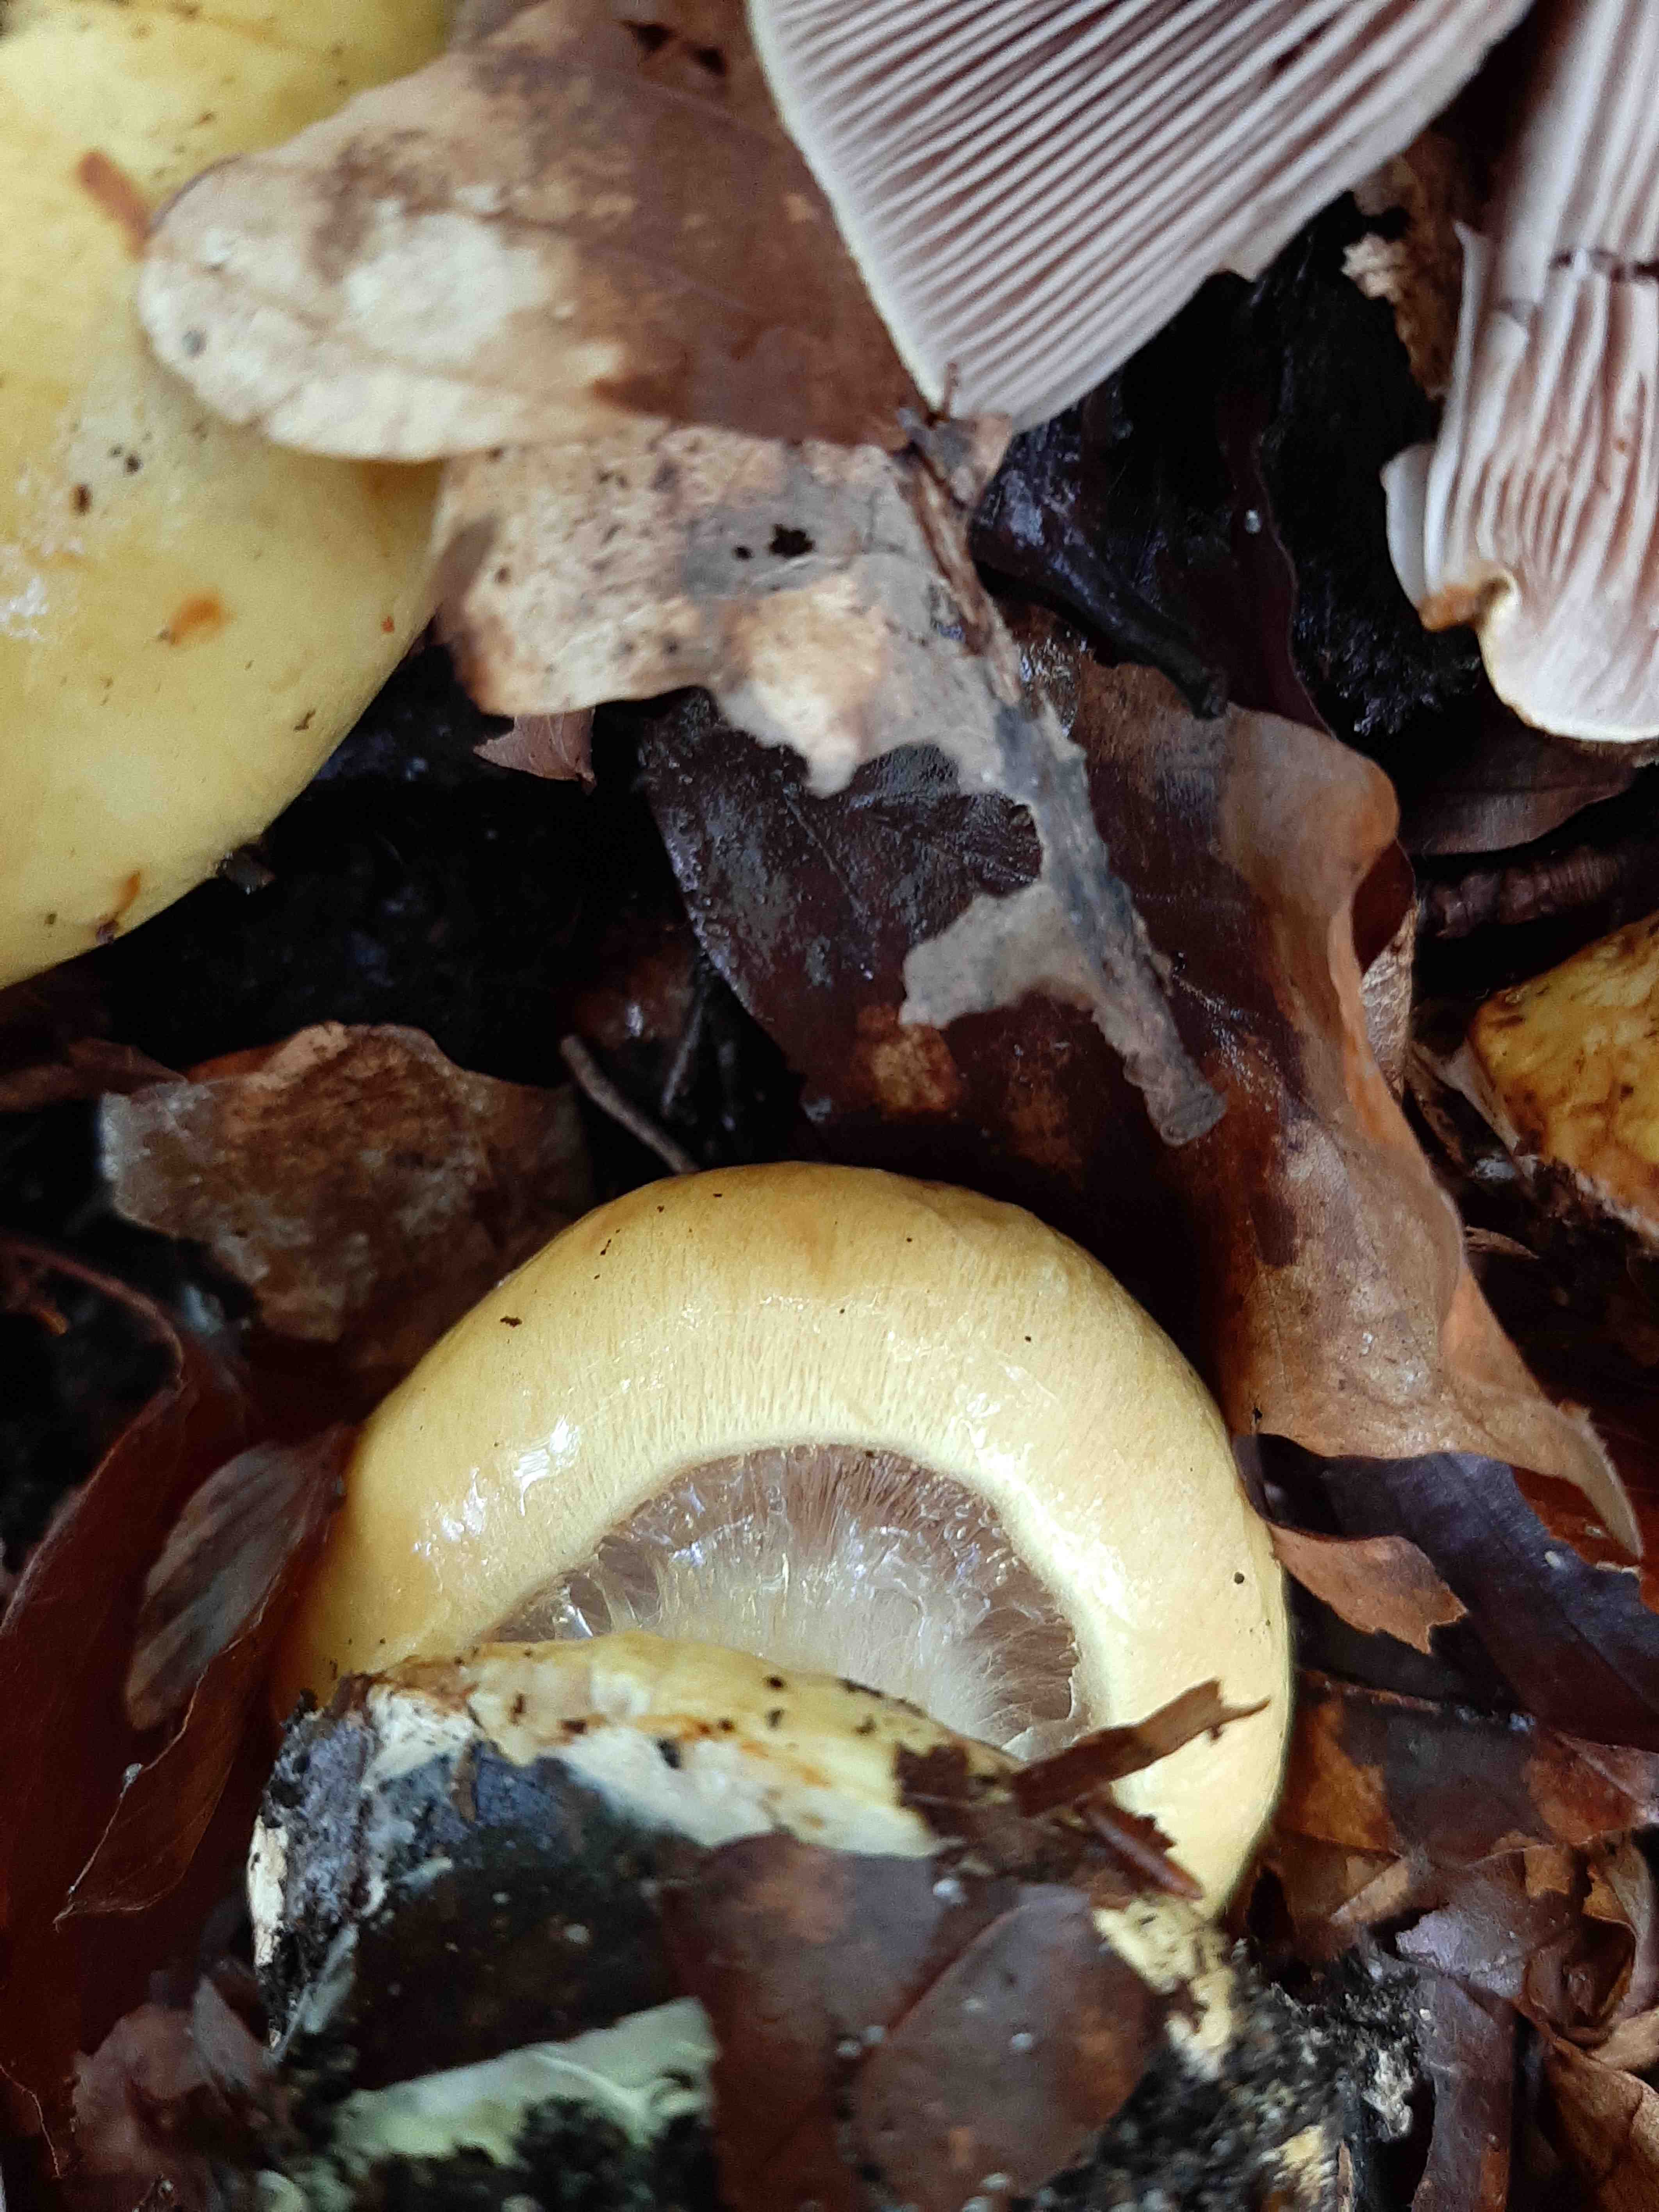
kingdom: Fungi
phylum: Basidiomycota
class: Agaricomycetes
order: Agaricales
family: Cortinariaceae
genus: Cortinarius
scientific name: Cortinarius anserinus
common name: bøge-slørhat
